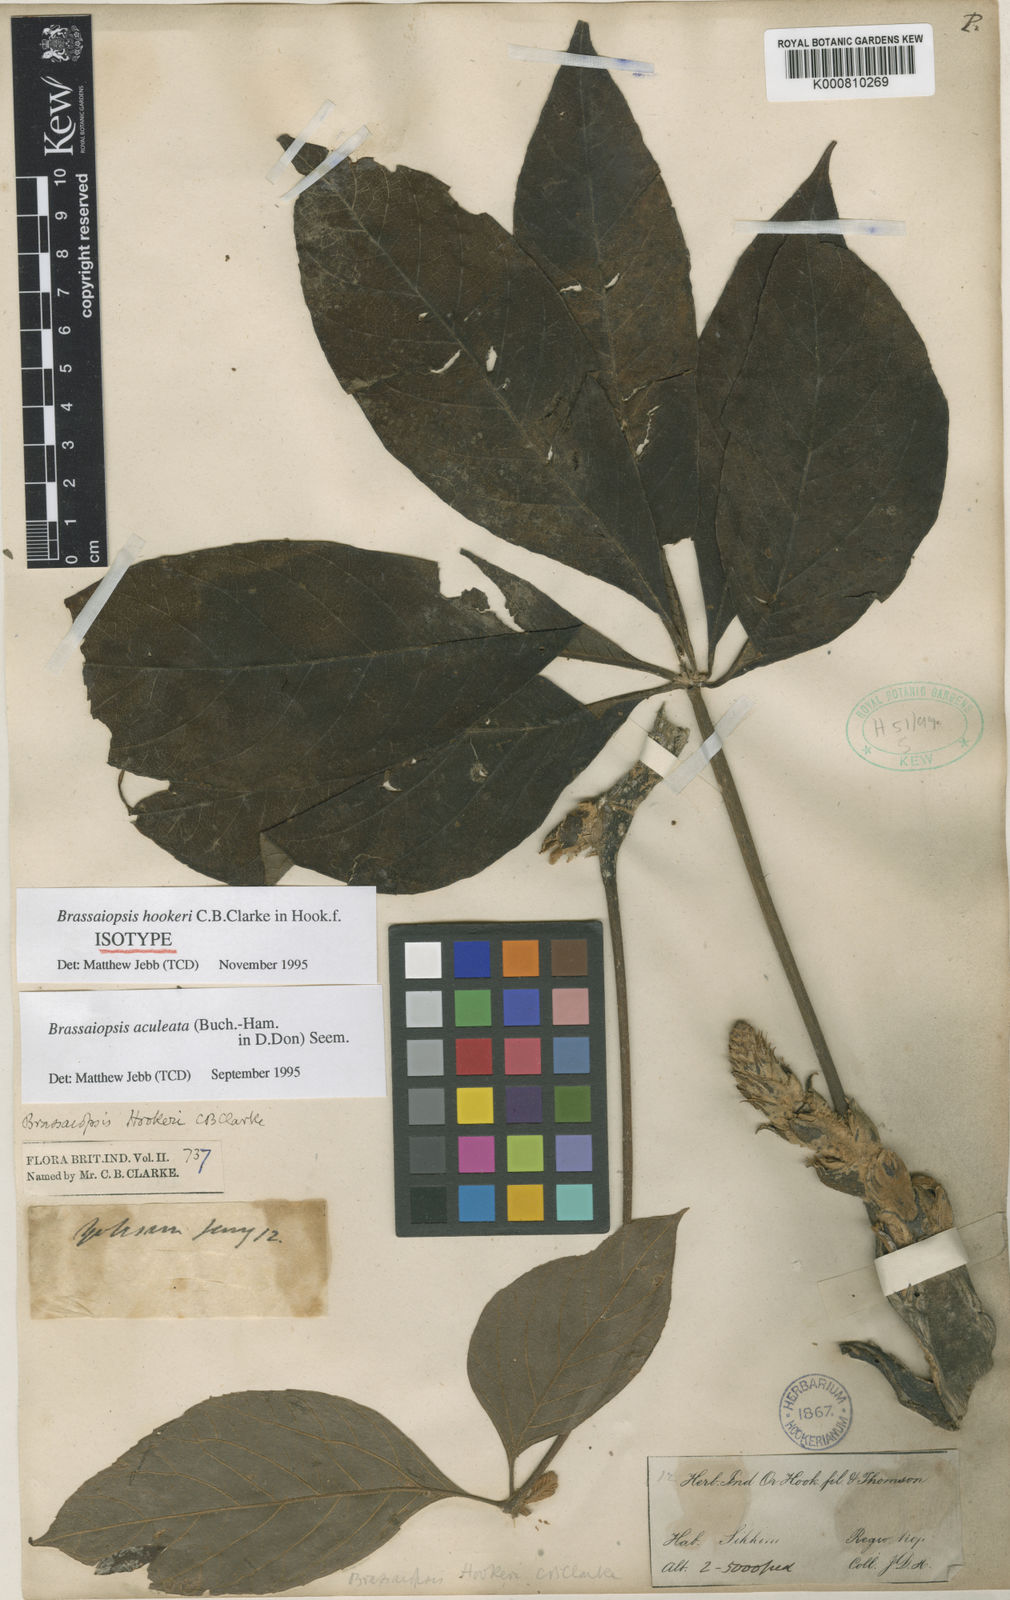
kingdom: Plantae
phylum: Tracheophyta
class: Magnoliopsida
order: Apiales
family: Araliaceae
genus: Brassaiopsis
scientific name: Brassaiopsis aculeata
